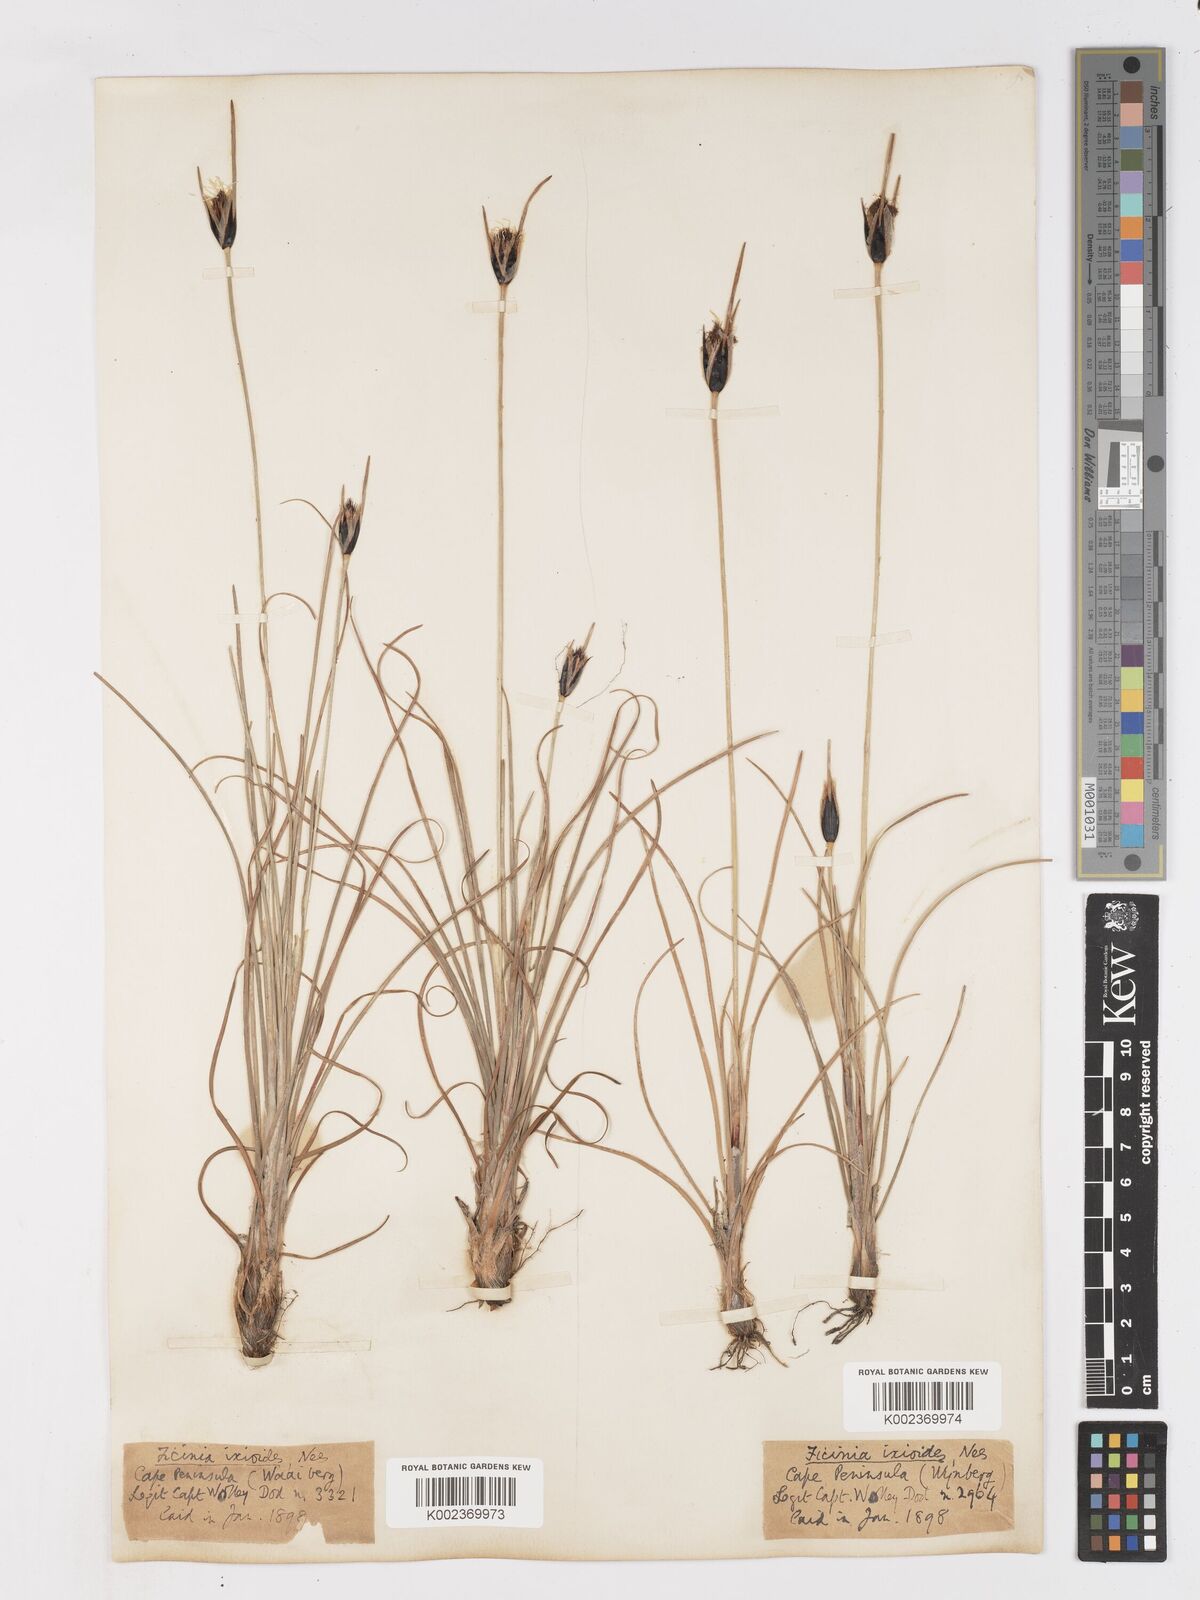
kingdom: Plantae
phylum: Tracheophyta
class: Liliopsida
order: Poales
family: Cyperaceae
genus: Ficinia
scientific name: Ficinia ixioides
